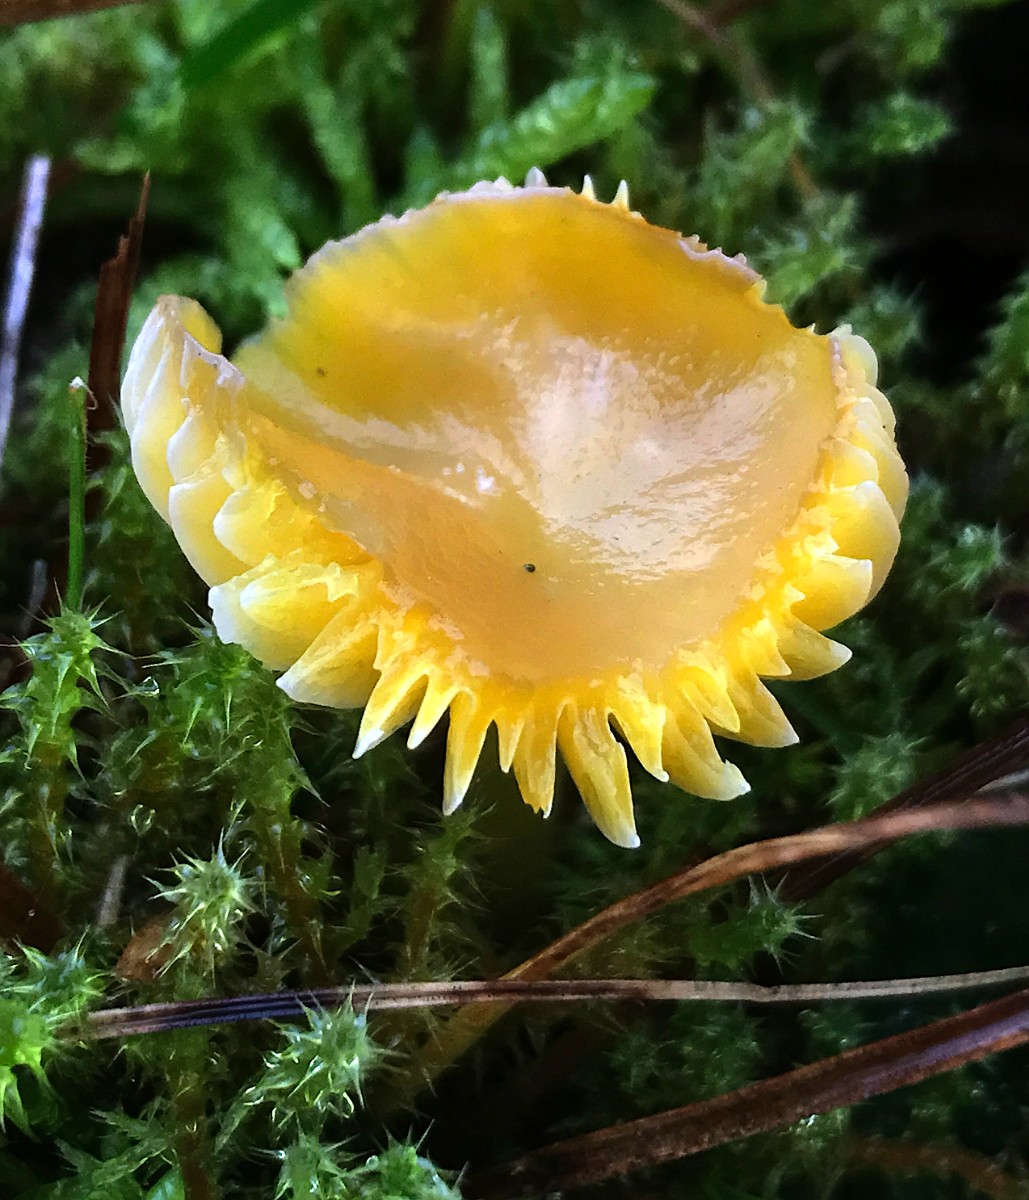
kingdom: Fungi
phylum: Basidiomycota
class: Agaricomycetes
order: Agaricales
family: Hygrophoraceae
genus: Hygrocybe
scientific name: Hygrocybe chlorophana
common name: gul vokshat
